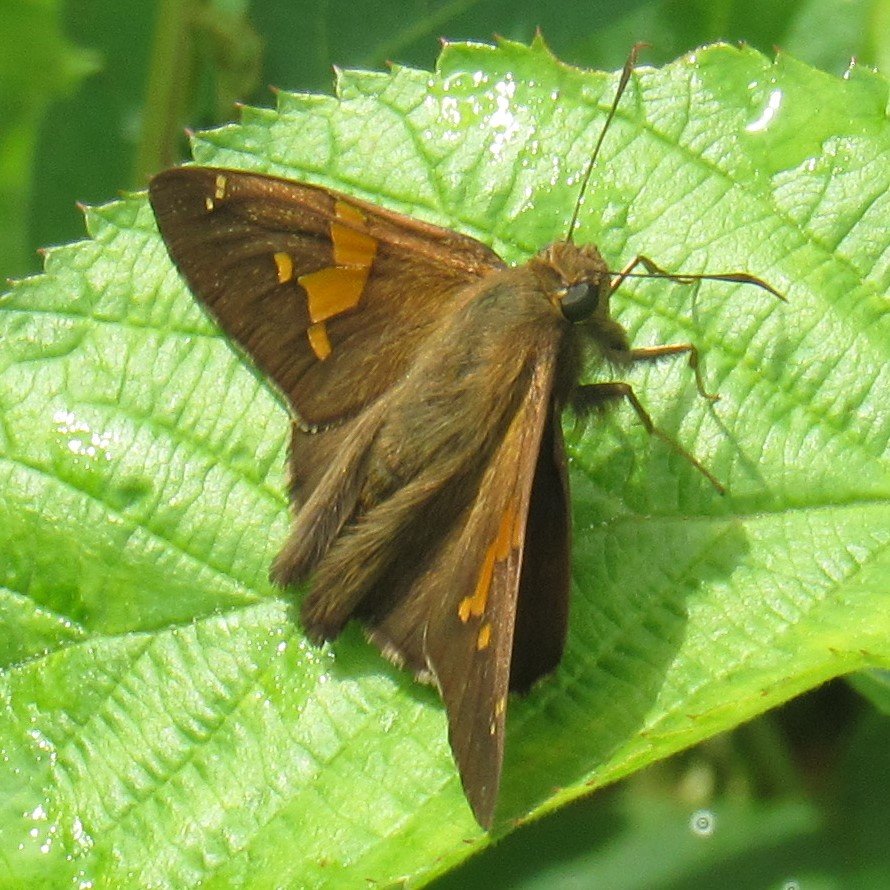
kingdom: Animalia
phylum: Arthropoda
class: Insecta
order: Lepidoptera
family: Hesperiidae
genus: Epargyreus
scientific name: Epargyreus clarus
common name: Silver-spotted Skipper
